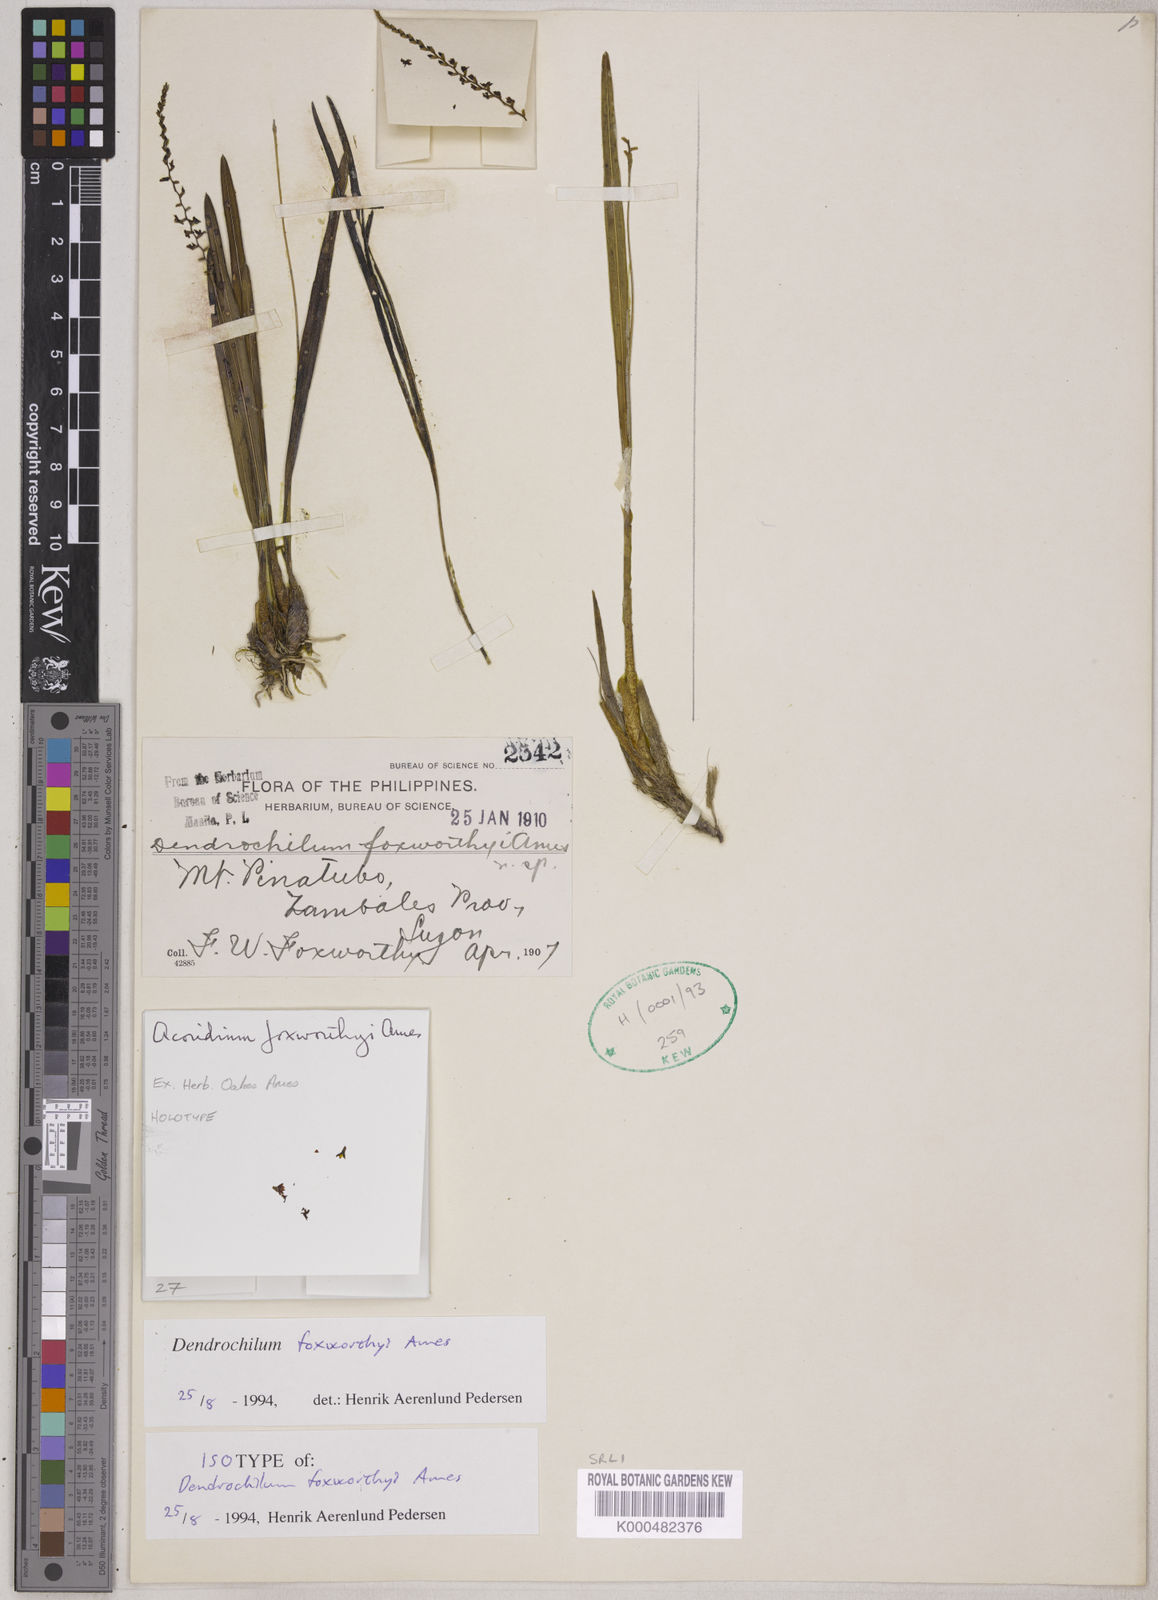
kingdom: Plantae
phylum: Tracheophyta
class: Liliopsida
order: Asparagales
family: Orchidaceae
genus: Coelogyne
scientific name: Coelogyne foxworthyi
